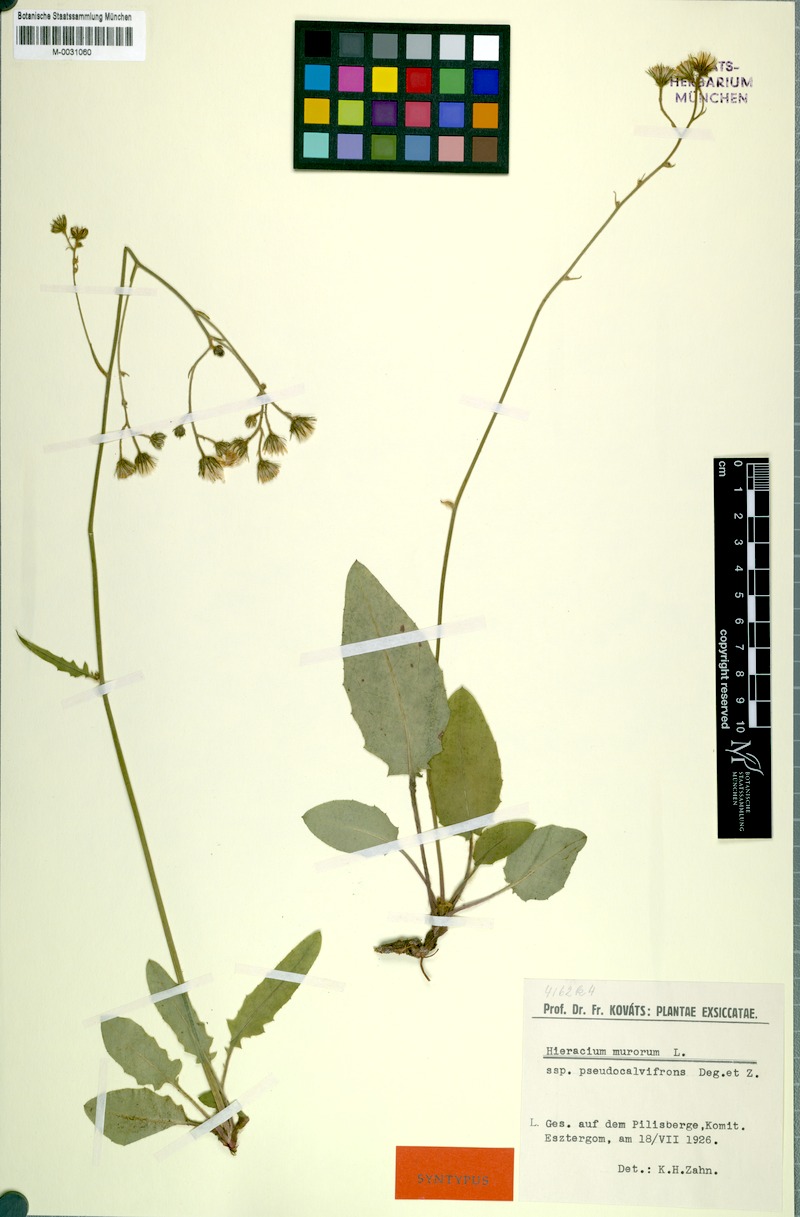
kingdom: Plantae
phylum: Tracheophyta
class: Magnoliopsida
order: Asterales
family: Asteraceae
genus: Hieracium
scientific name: Hieracium murorum
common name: Wall hawkweed
